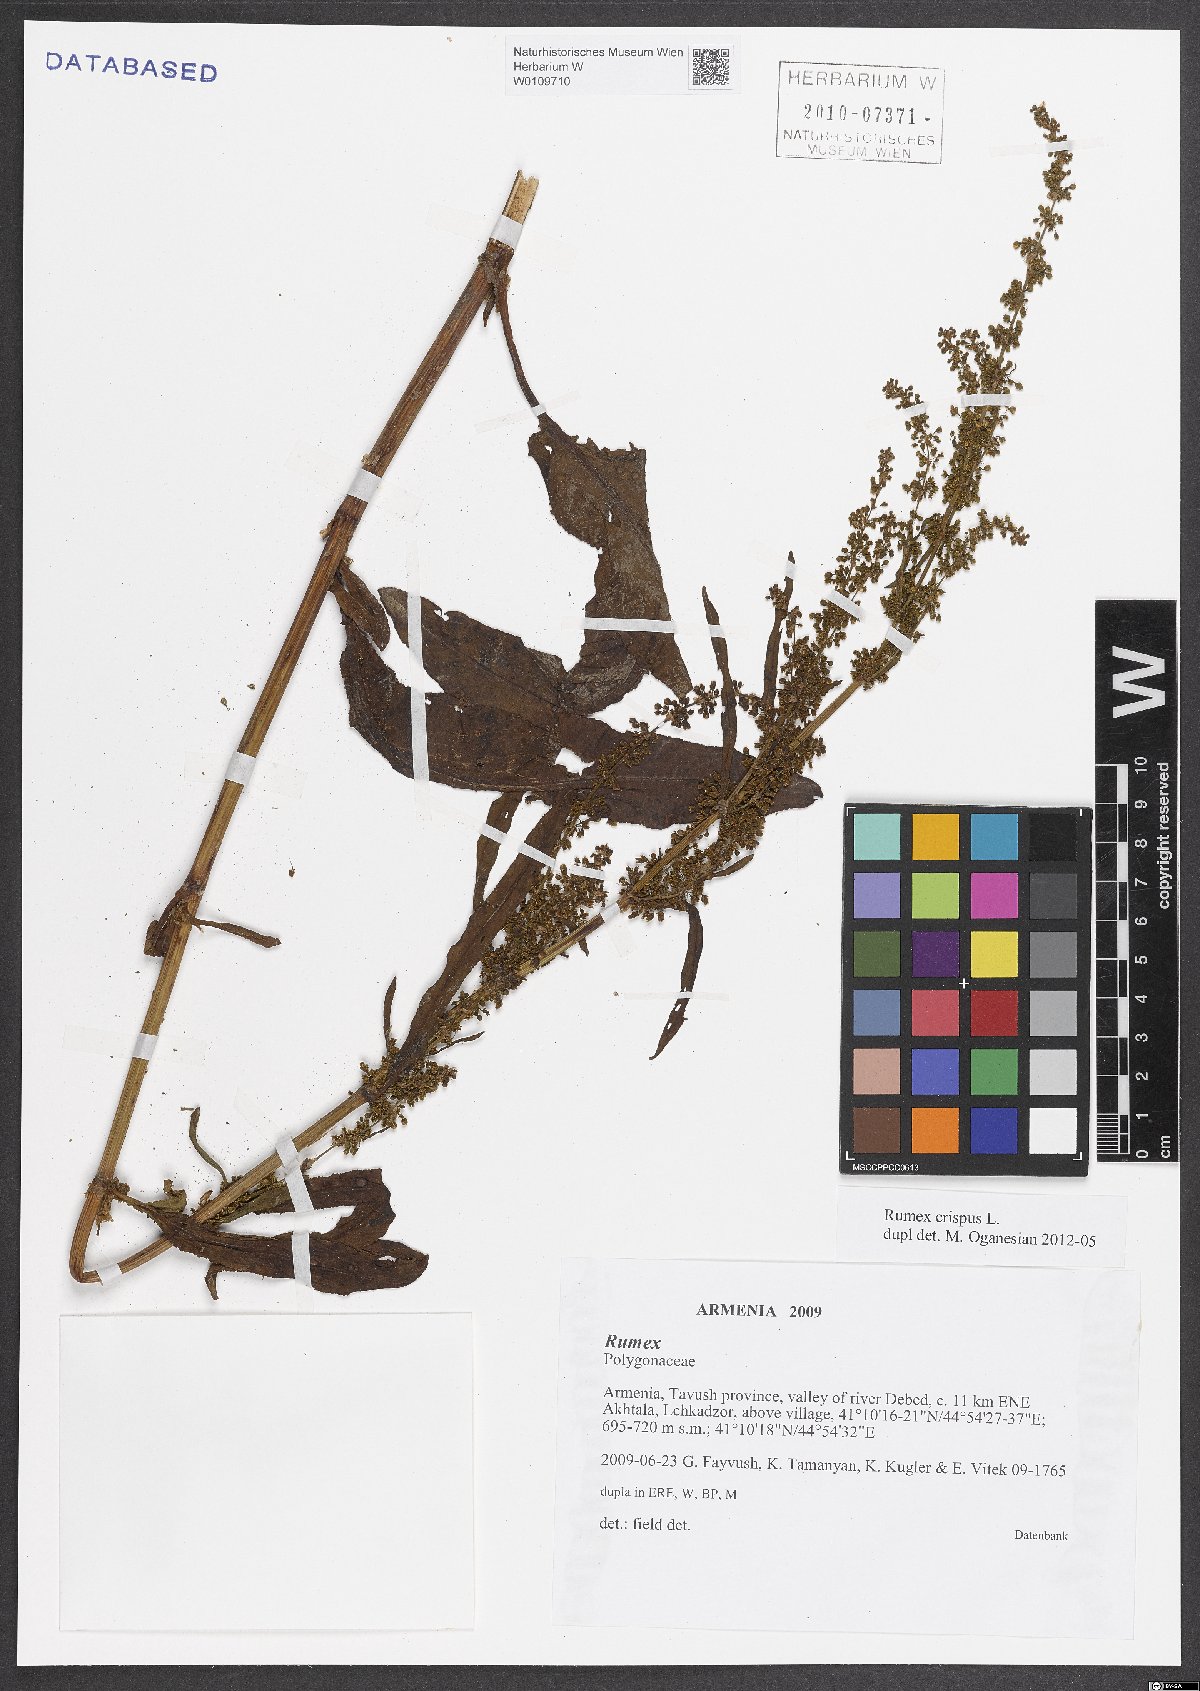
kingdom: Plantae
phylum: Tracheophyta
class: Magnoliopsida
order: Caryophyllales
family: Polygonaceae
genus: Rumex
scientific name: Rumex crispus
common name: Curled dock
